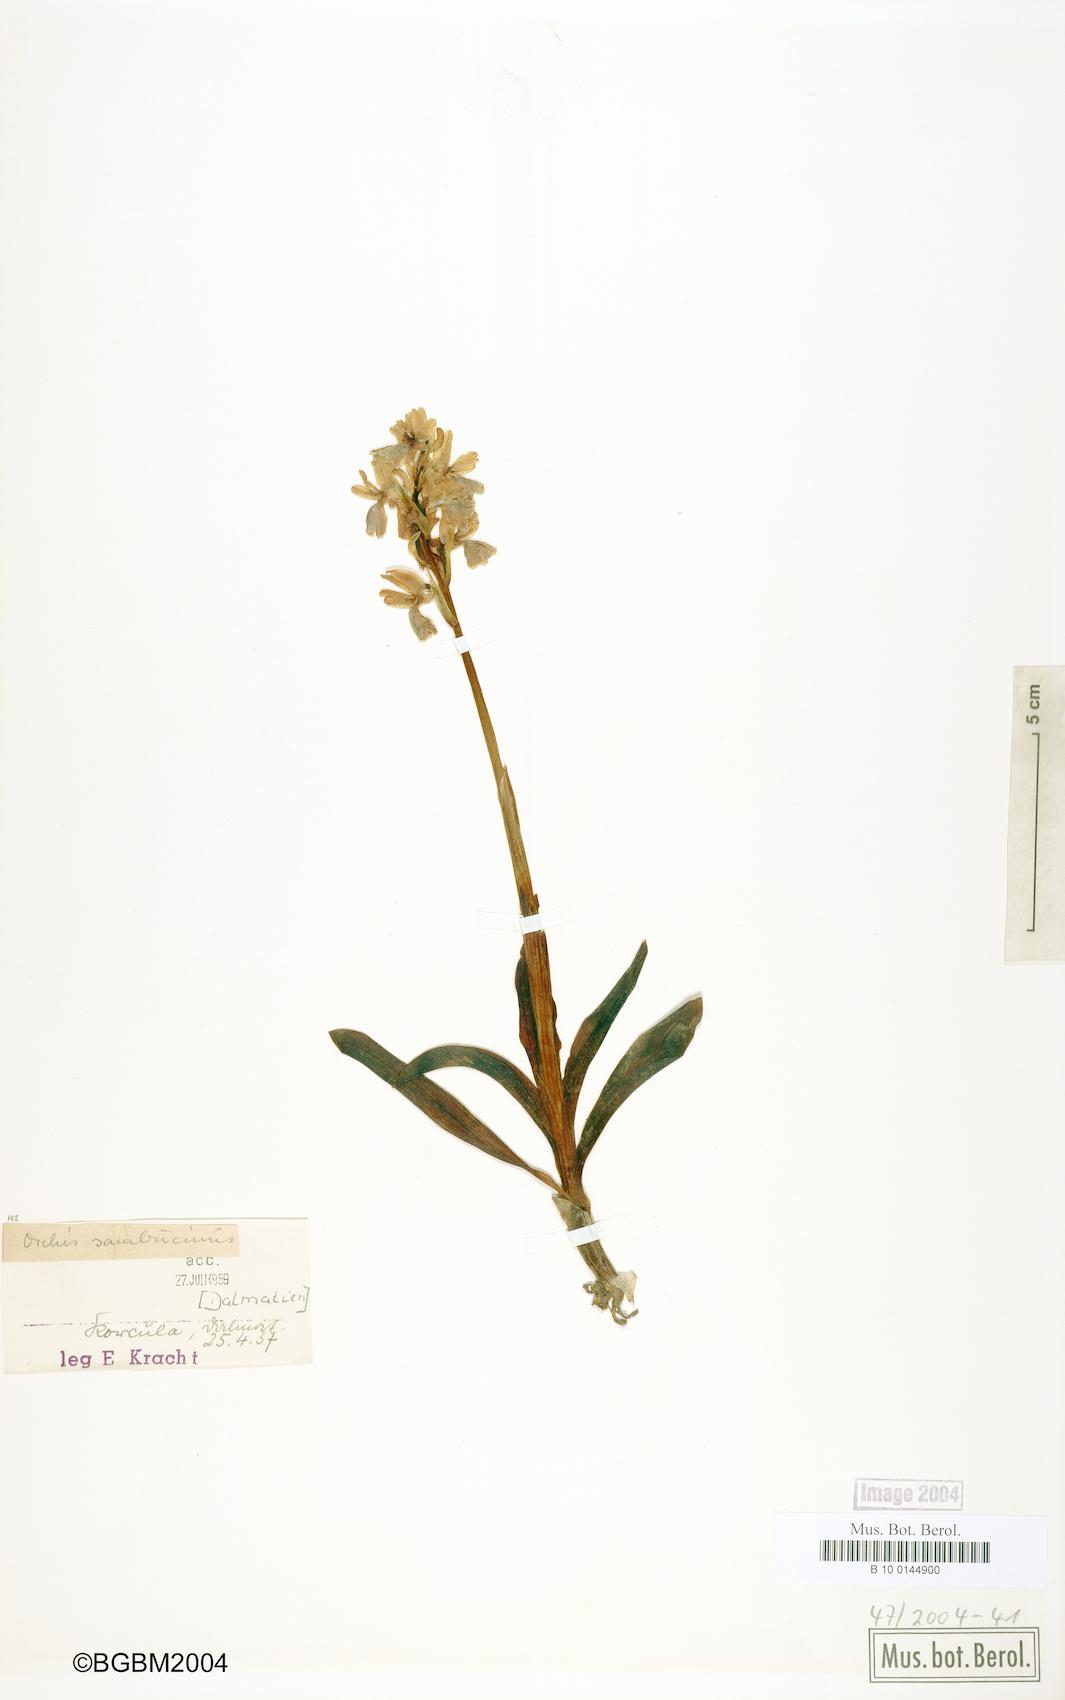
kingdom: Plantae
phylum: Tracheophyta
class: Liliopsida
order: Asparagales
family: Orchidaceae
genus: Dactylorhiza
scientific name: Dactylorhiza sambucina
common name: Elder-flowered orchid
